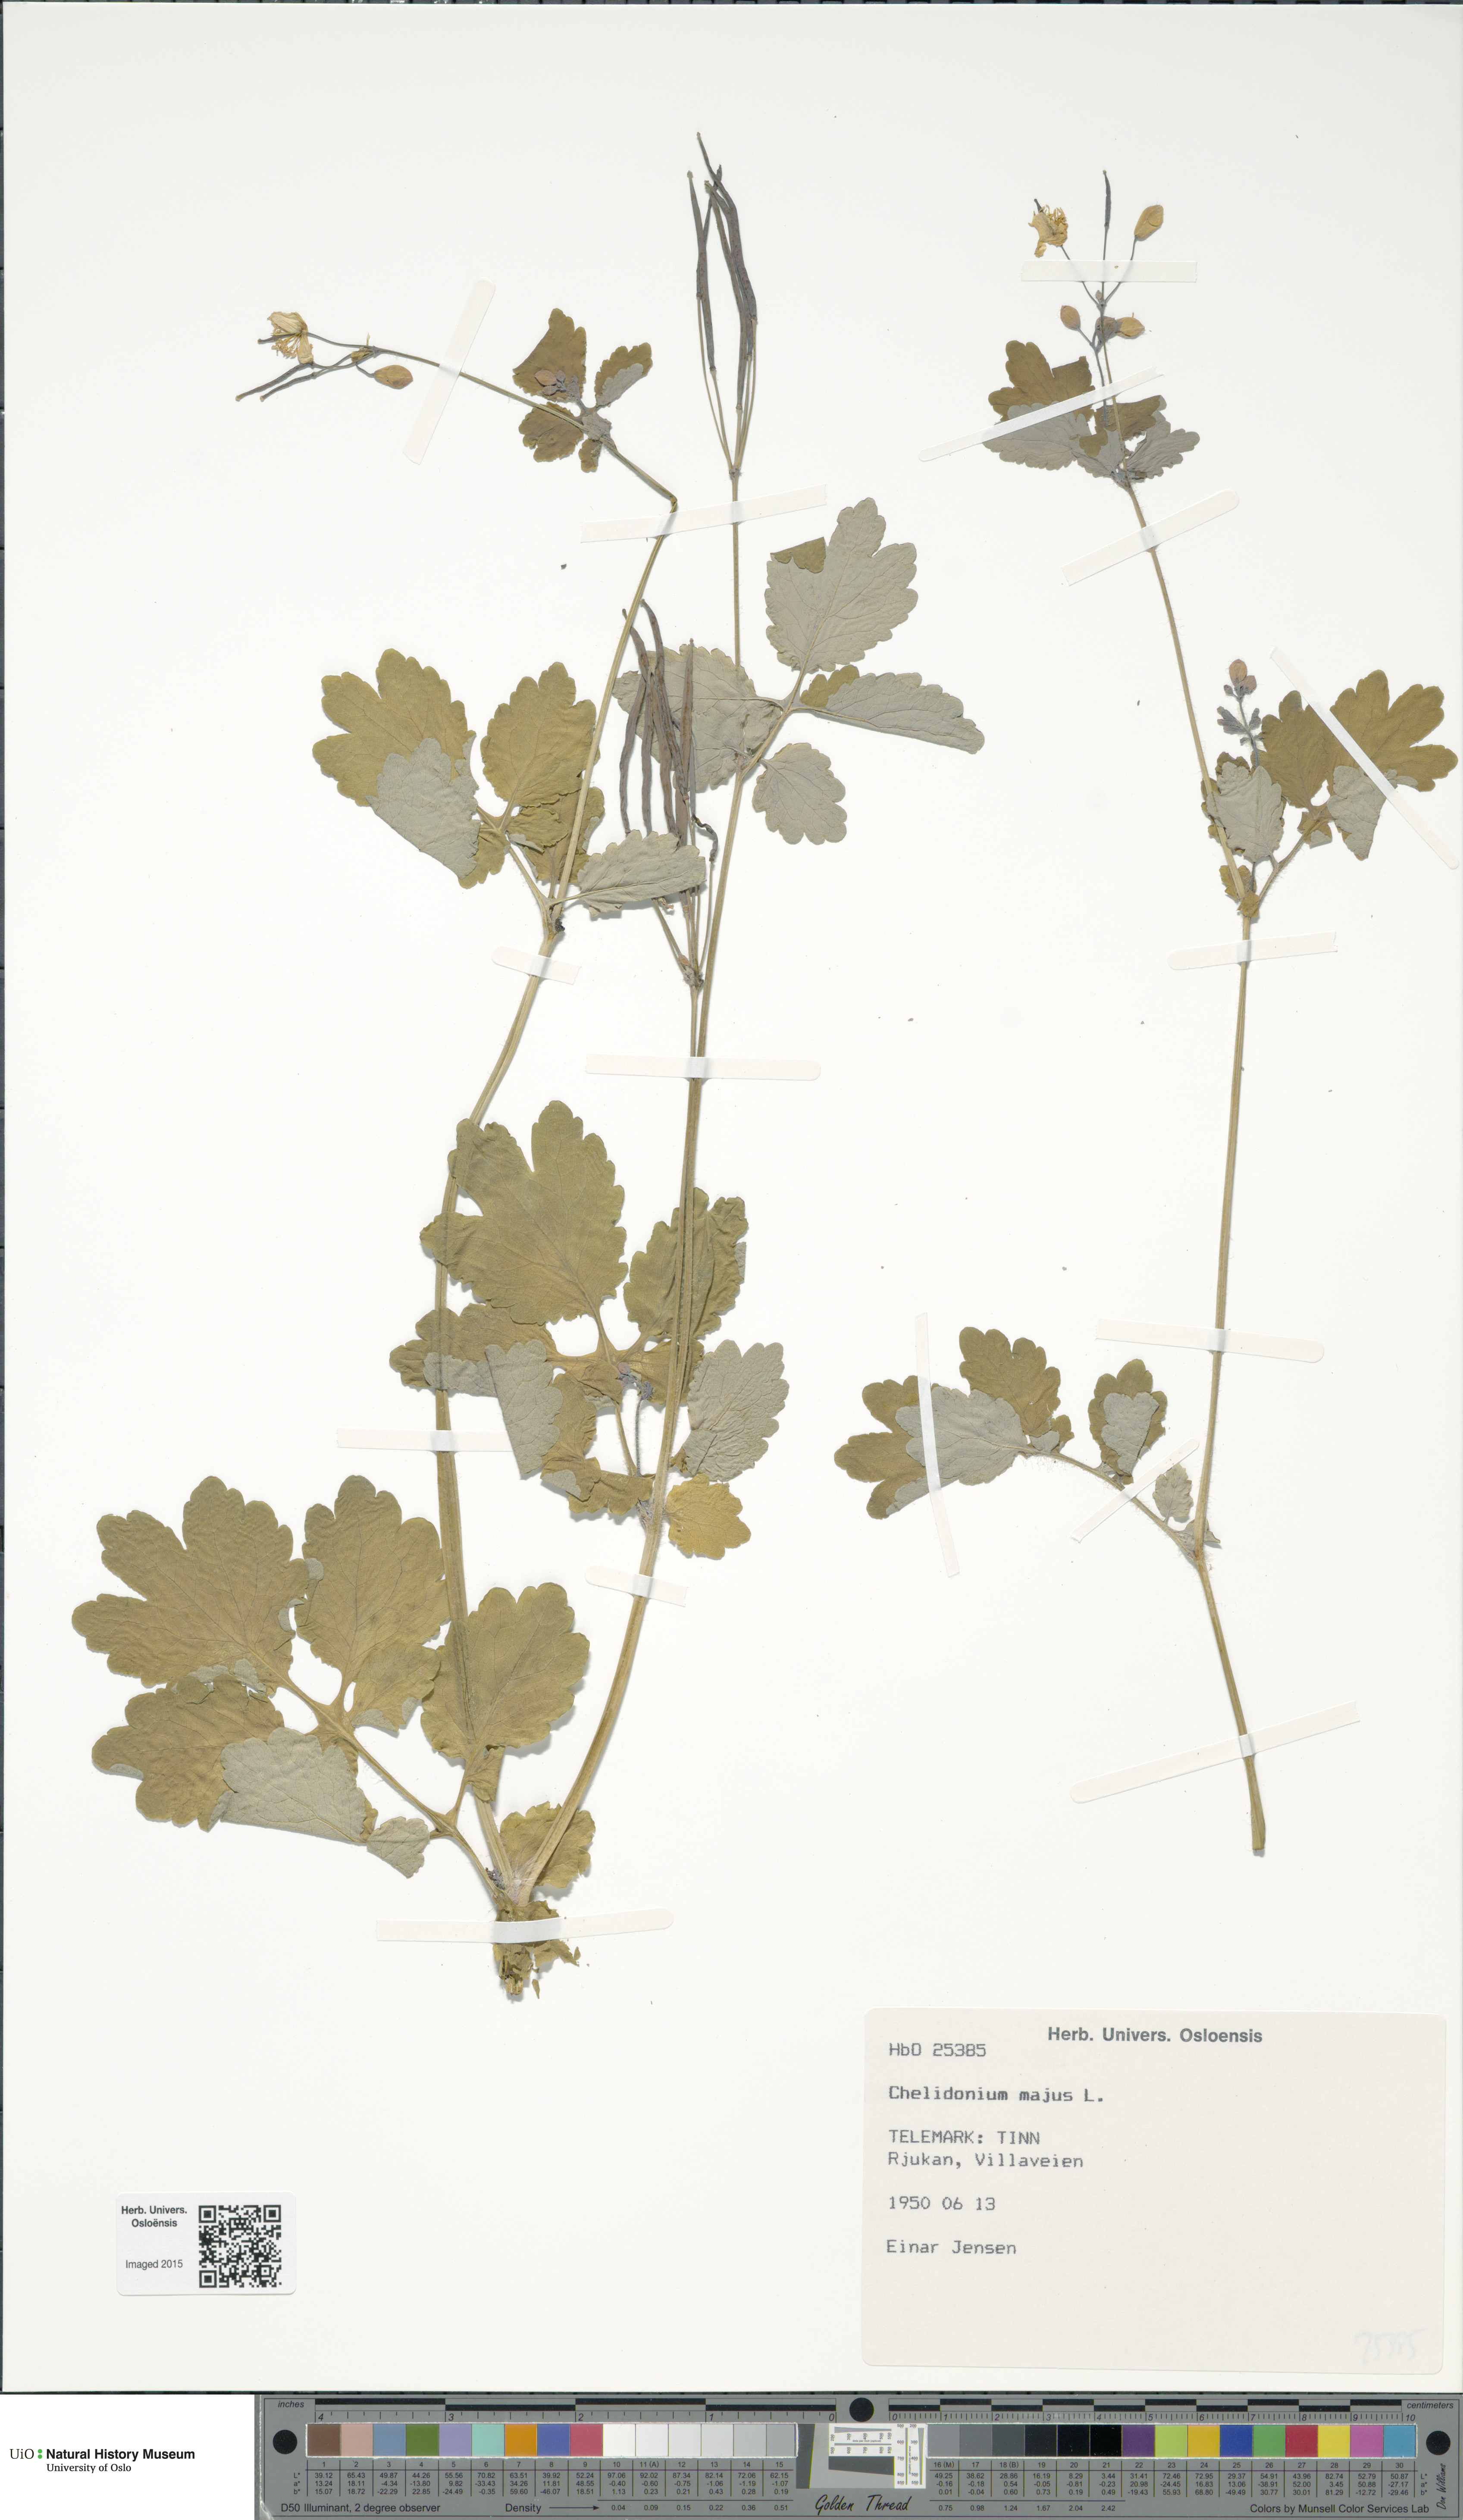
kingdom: Plantae
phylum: Tracheophyta
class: Magnoliopsida
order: Ranunculales
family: Papaveraceae
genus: Chelidonium
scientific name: Chelidonium majus
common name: Greater celandine
